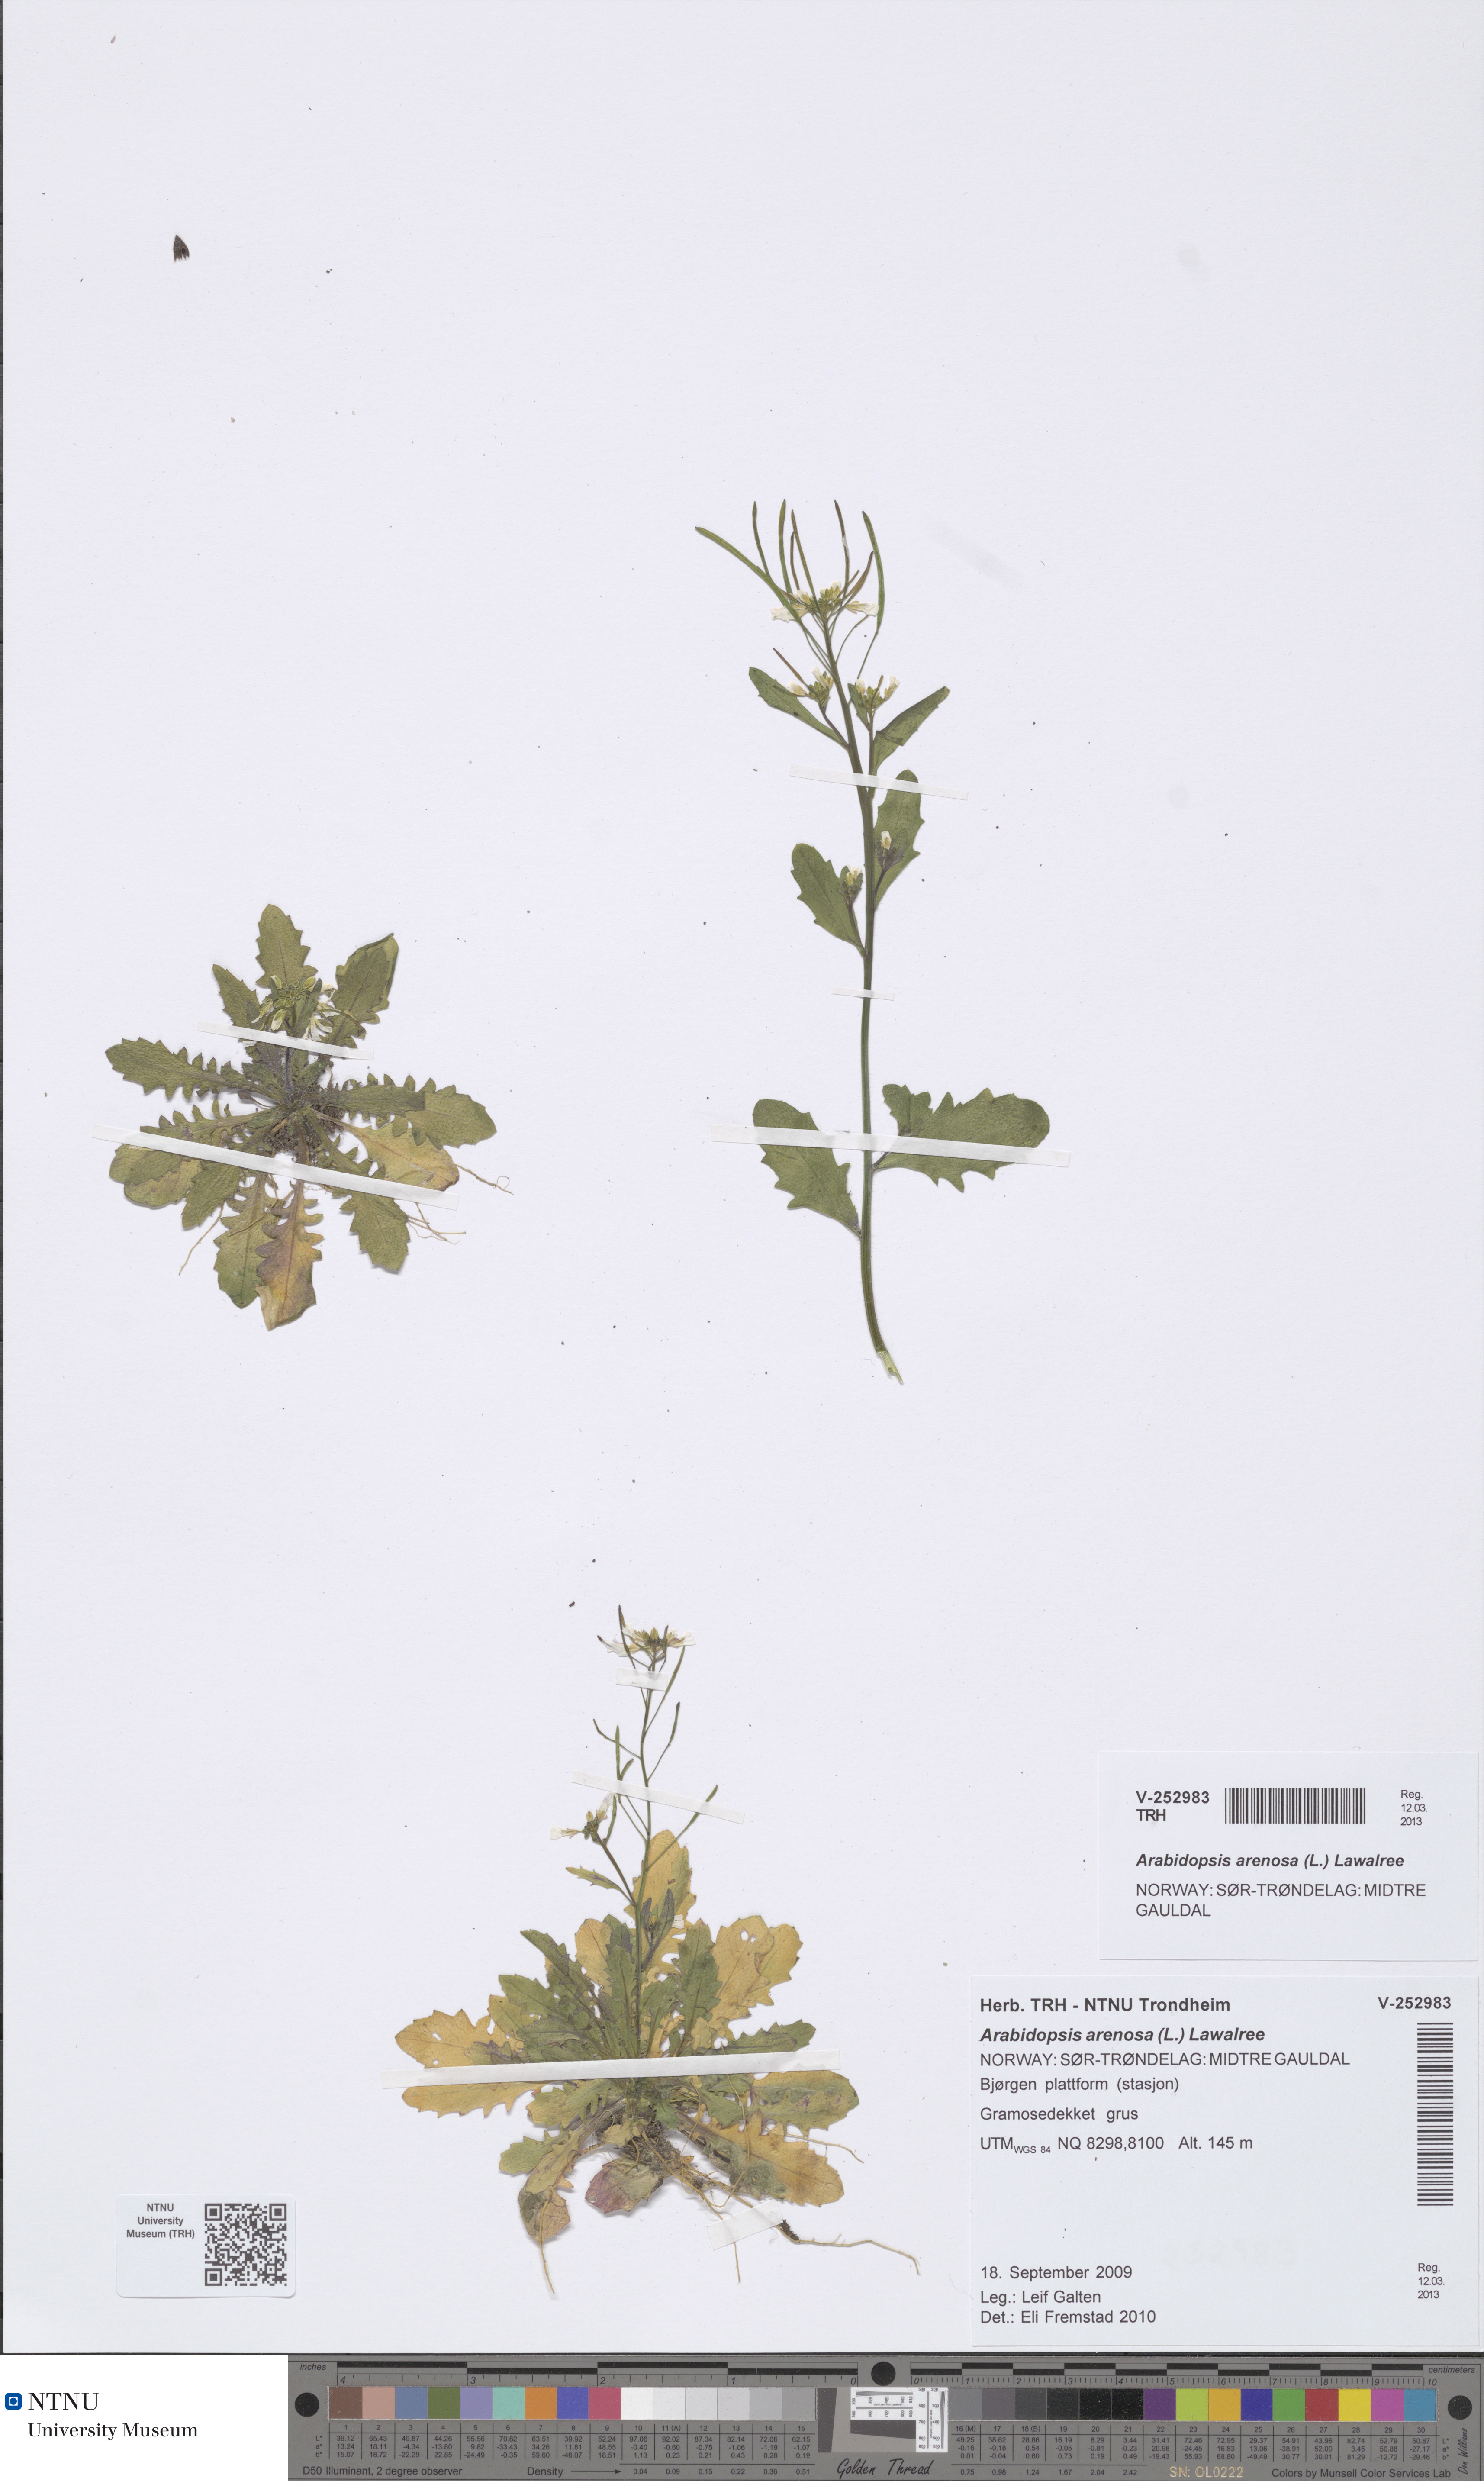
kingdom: Plantae
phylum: Tracheophyta
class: Magnoliopsida
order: Brassicales
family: Brassicaceae
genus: Arabidopsis
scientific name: Arabidopsis arenosa
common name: Sand rock-cress
